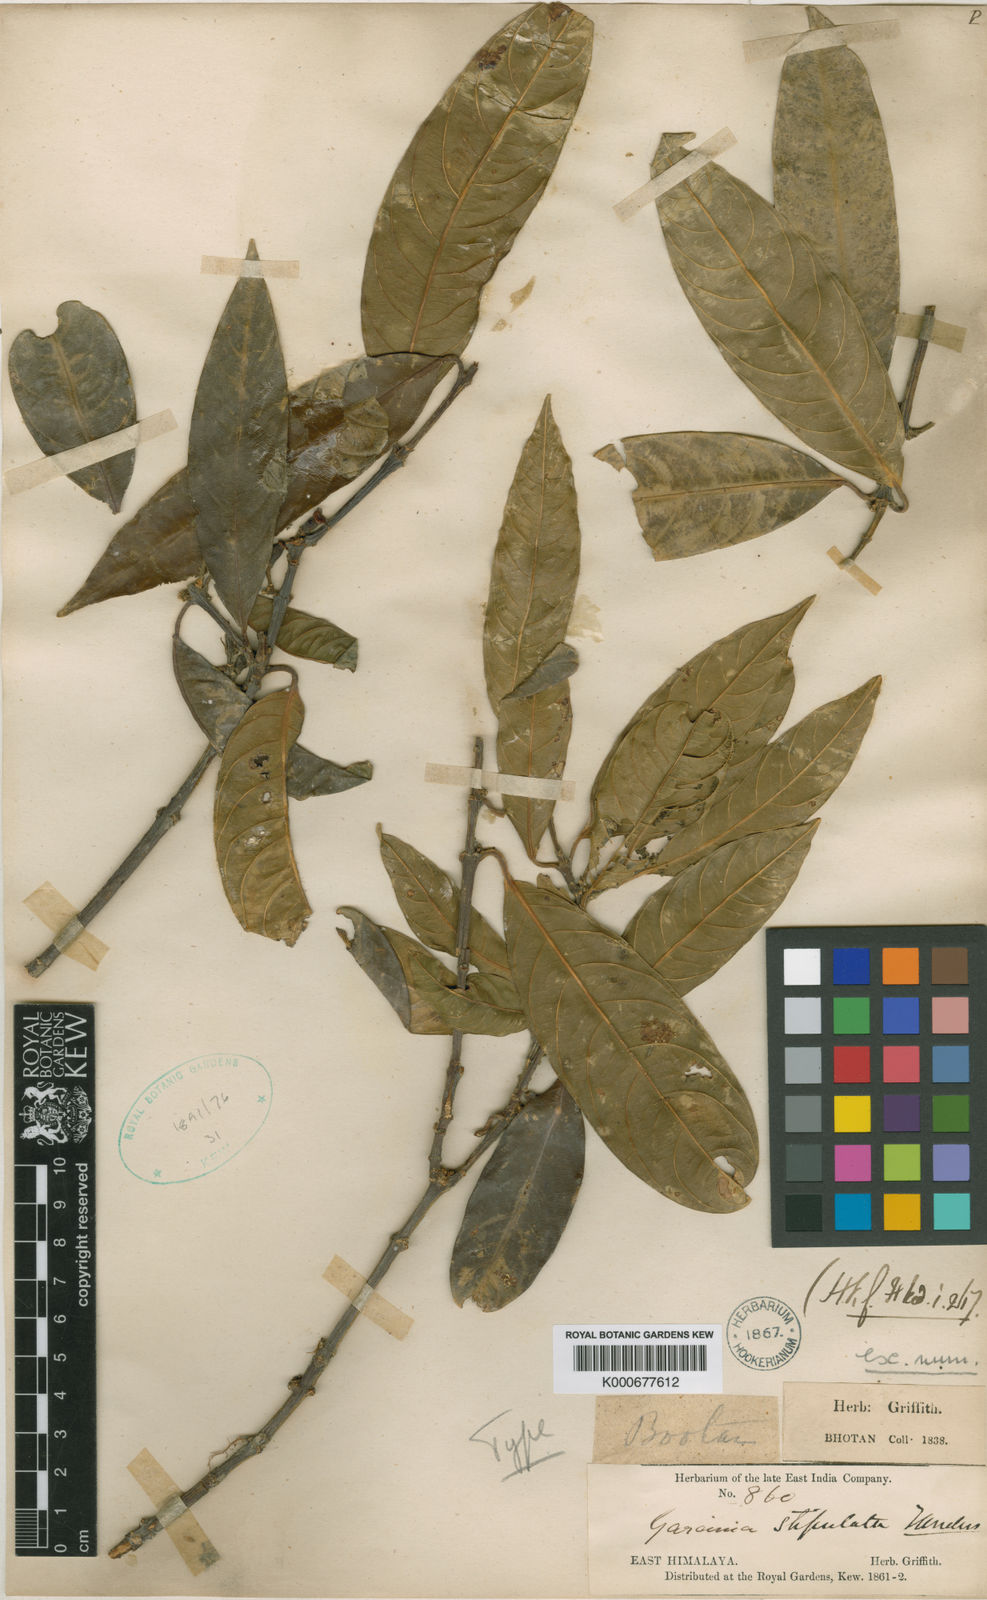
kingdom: Plantae
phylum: Tracheophyta
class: Magnoliopsida
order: Malpighiales
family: Clusiaceae
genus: Garcinia
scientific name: Garcinia stipulata
